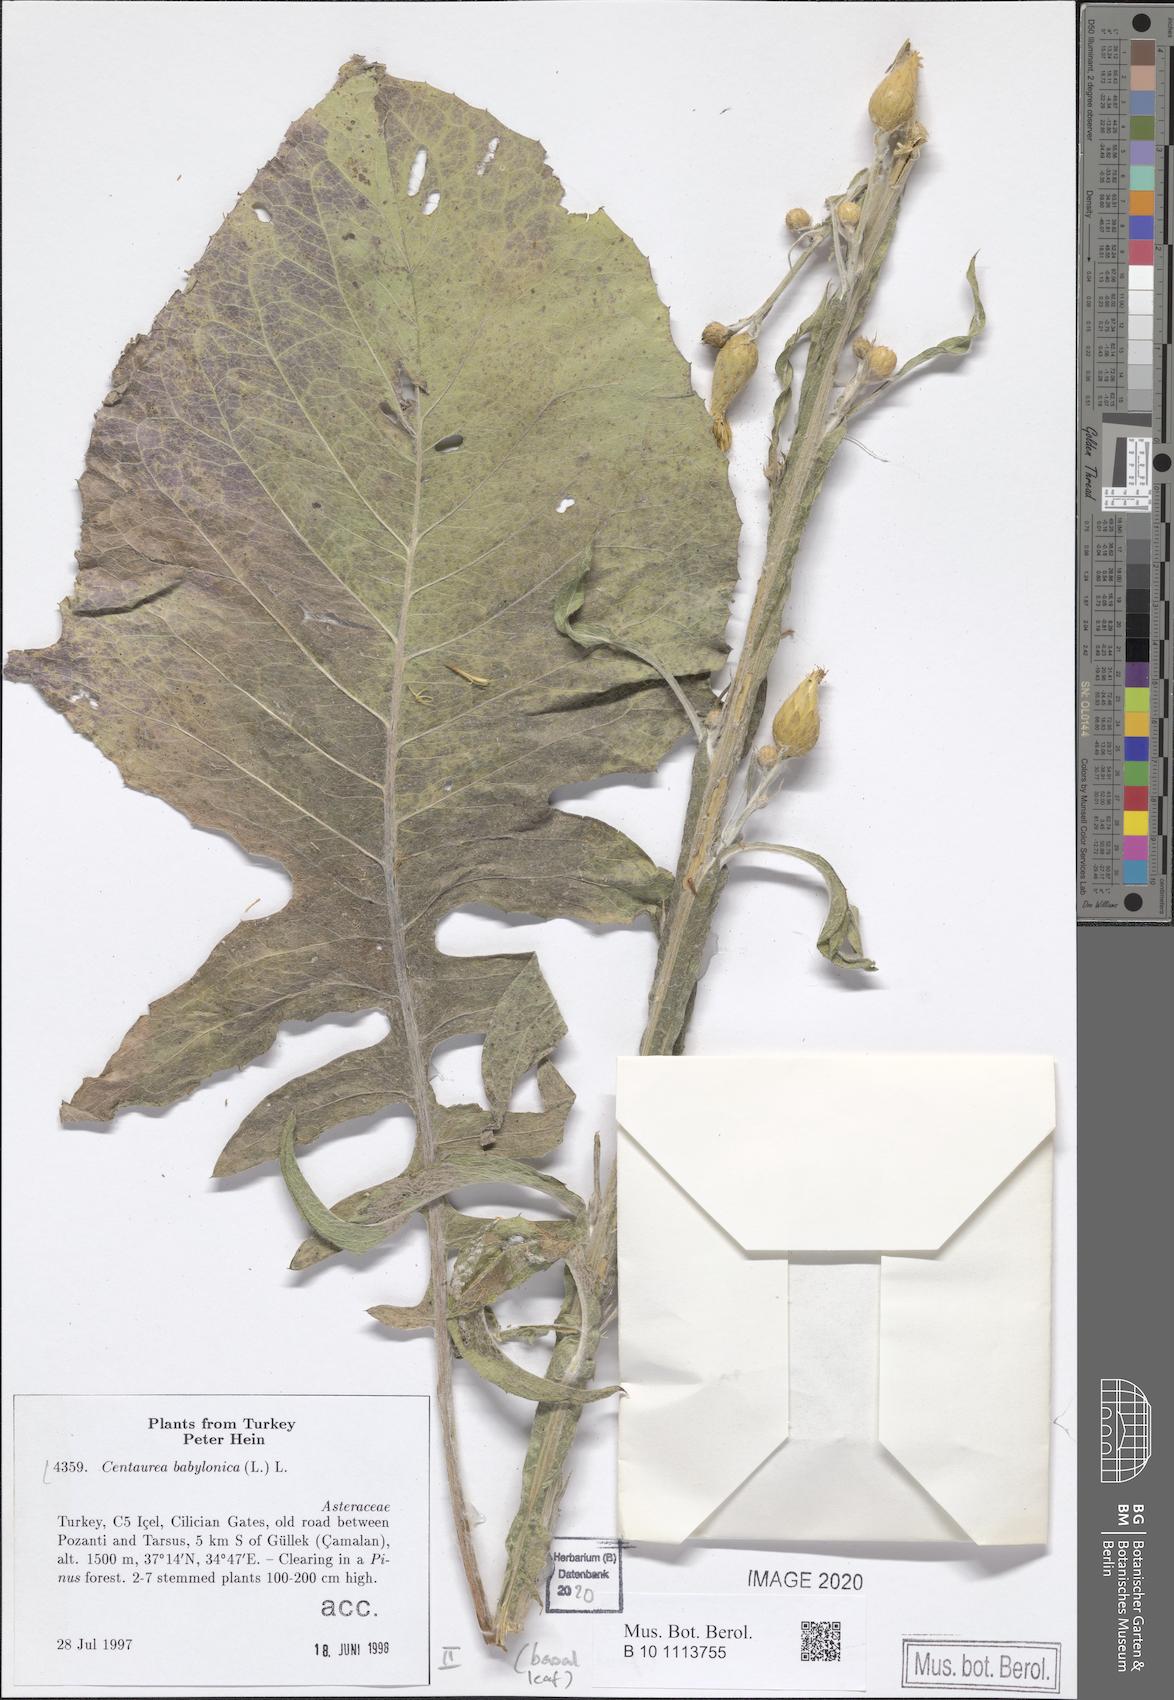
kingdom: Plantae
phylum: Tracheophyta
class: Magnoliopsida
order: Asterales
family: Asteraceae
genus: Centaurea
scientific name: Centaurea babylonica
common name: Syrian knapweed
